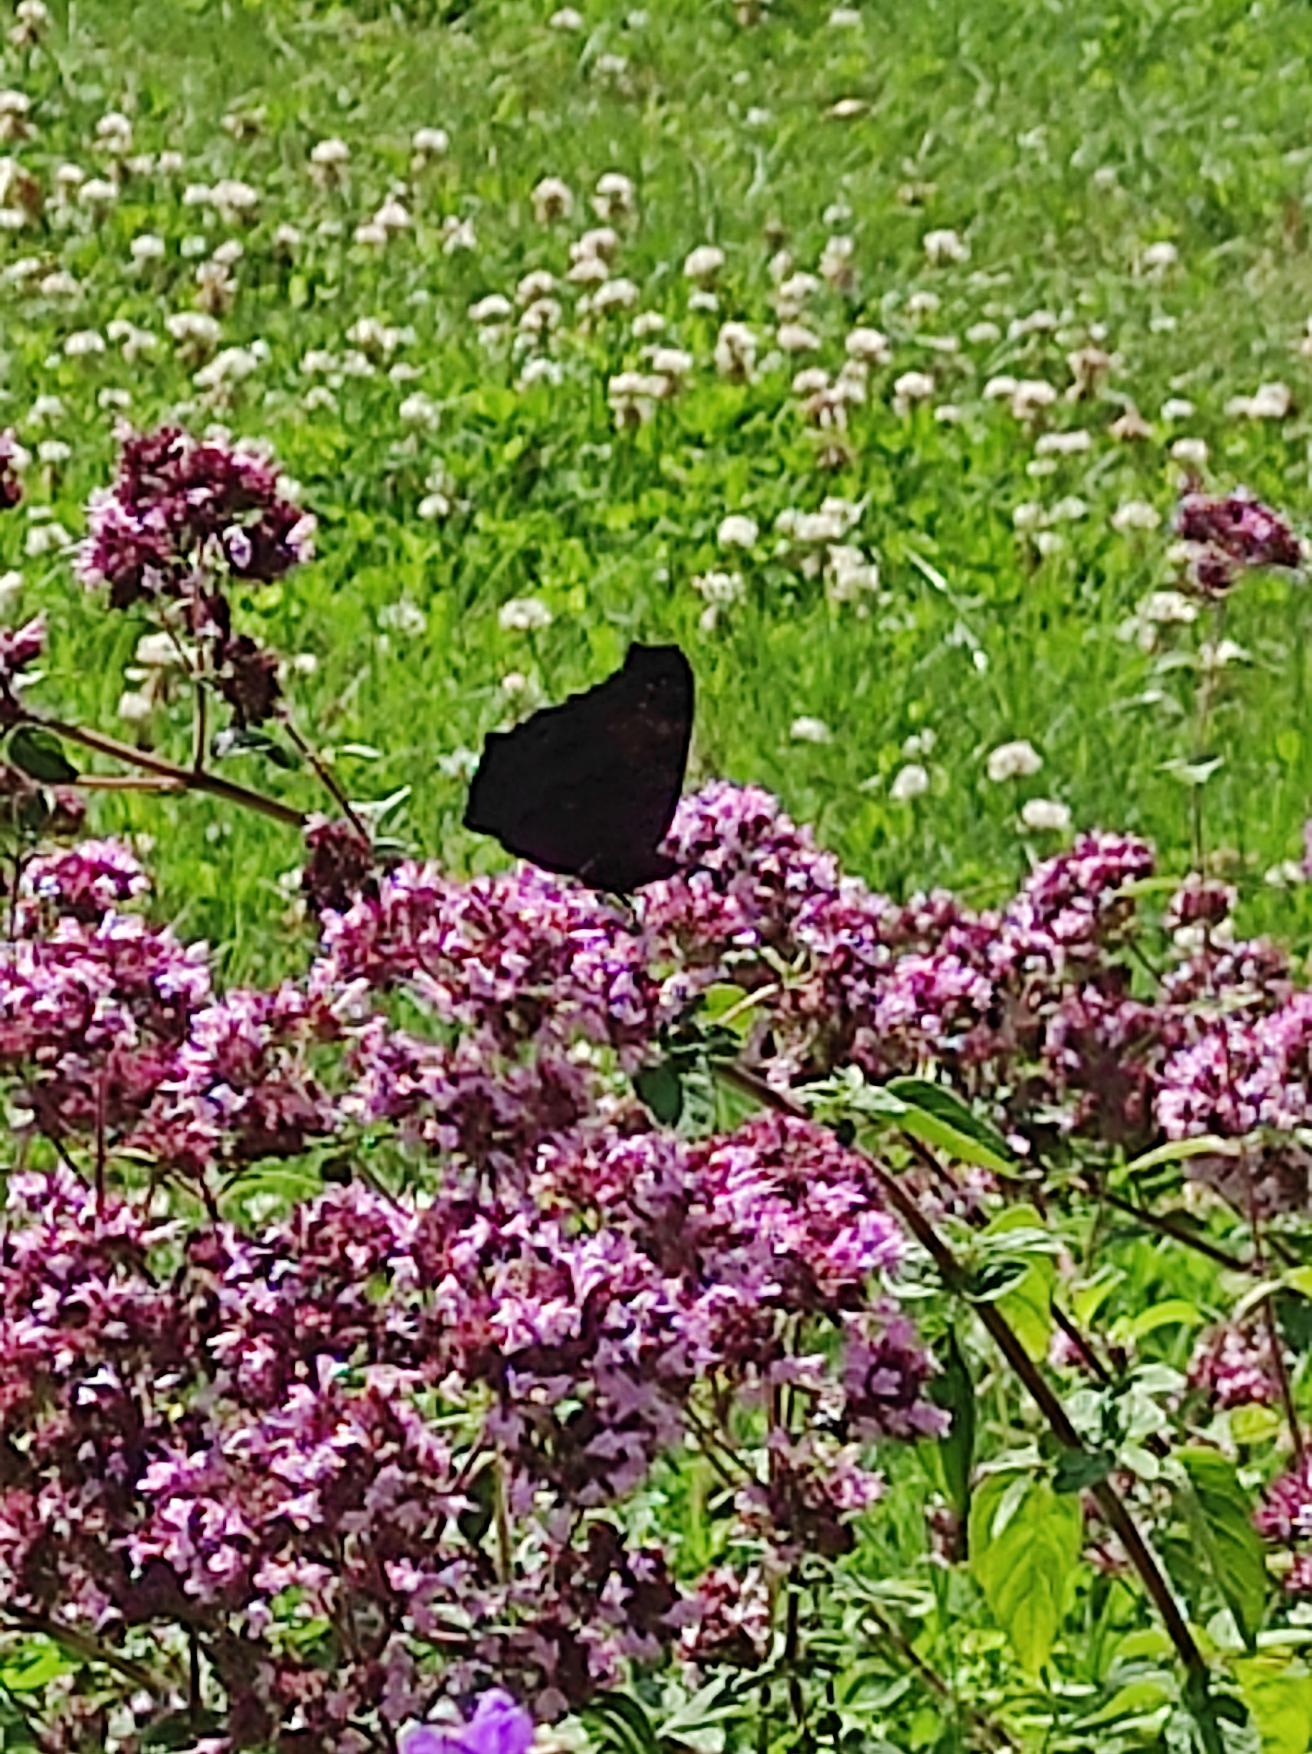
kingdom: Animalia
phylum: Arthropoda
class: Insecta
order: Lepidoptera
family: Nymphalidae
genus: Aglais
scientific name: Aglais io
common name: Dagpåfugleøje
